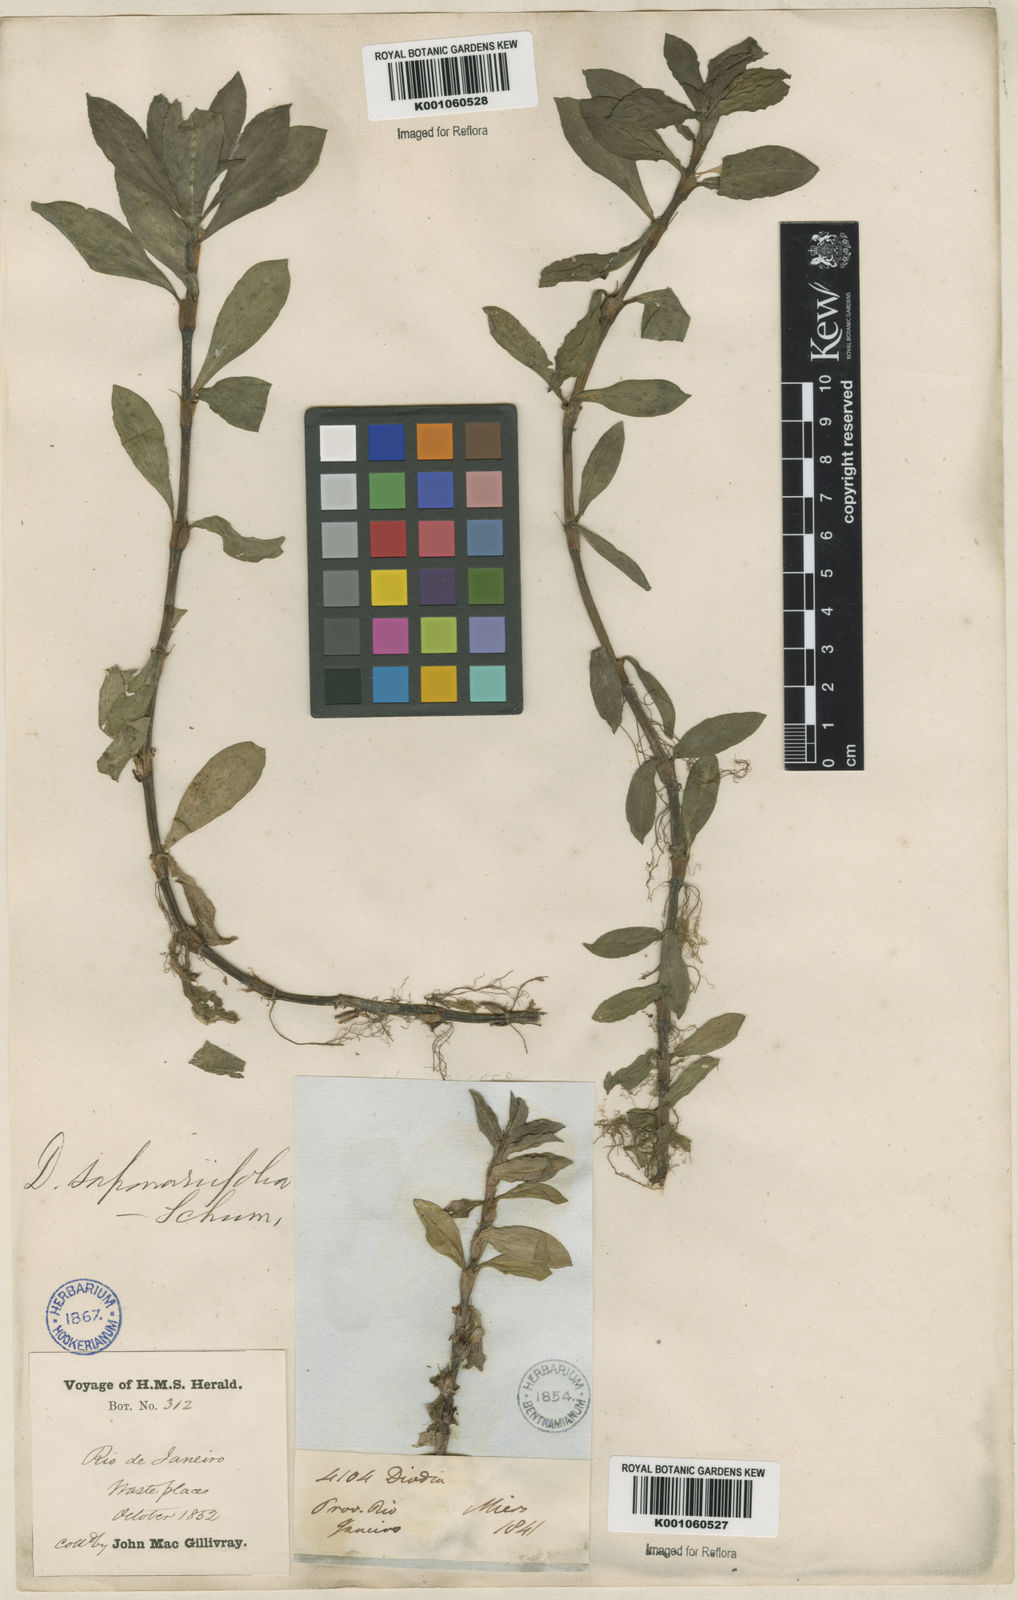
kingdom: Plantae
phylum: Tracheophyta
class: Magnoliopsida
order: Gentianales
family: Rubiaceae
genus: Diodia
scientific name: Diodia saponariifolia
